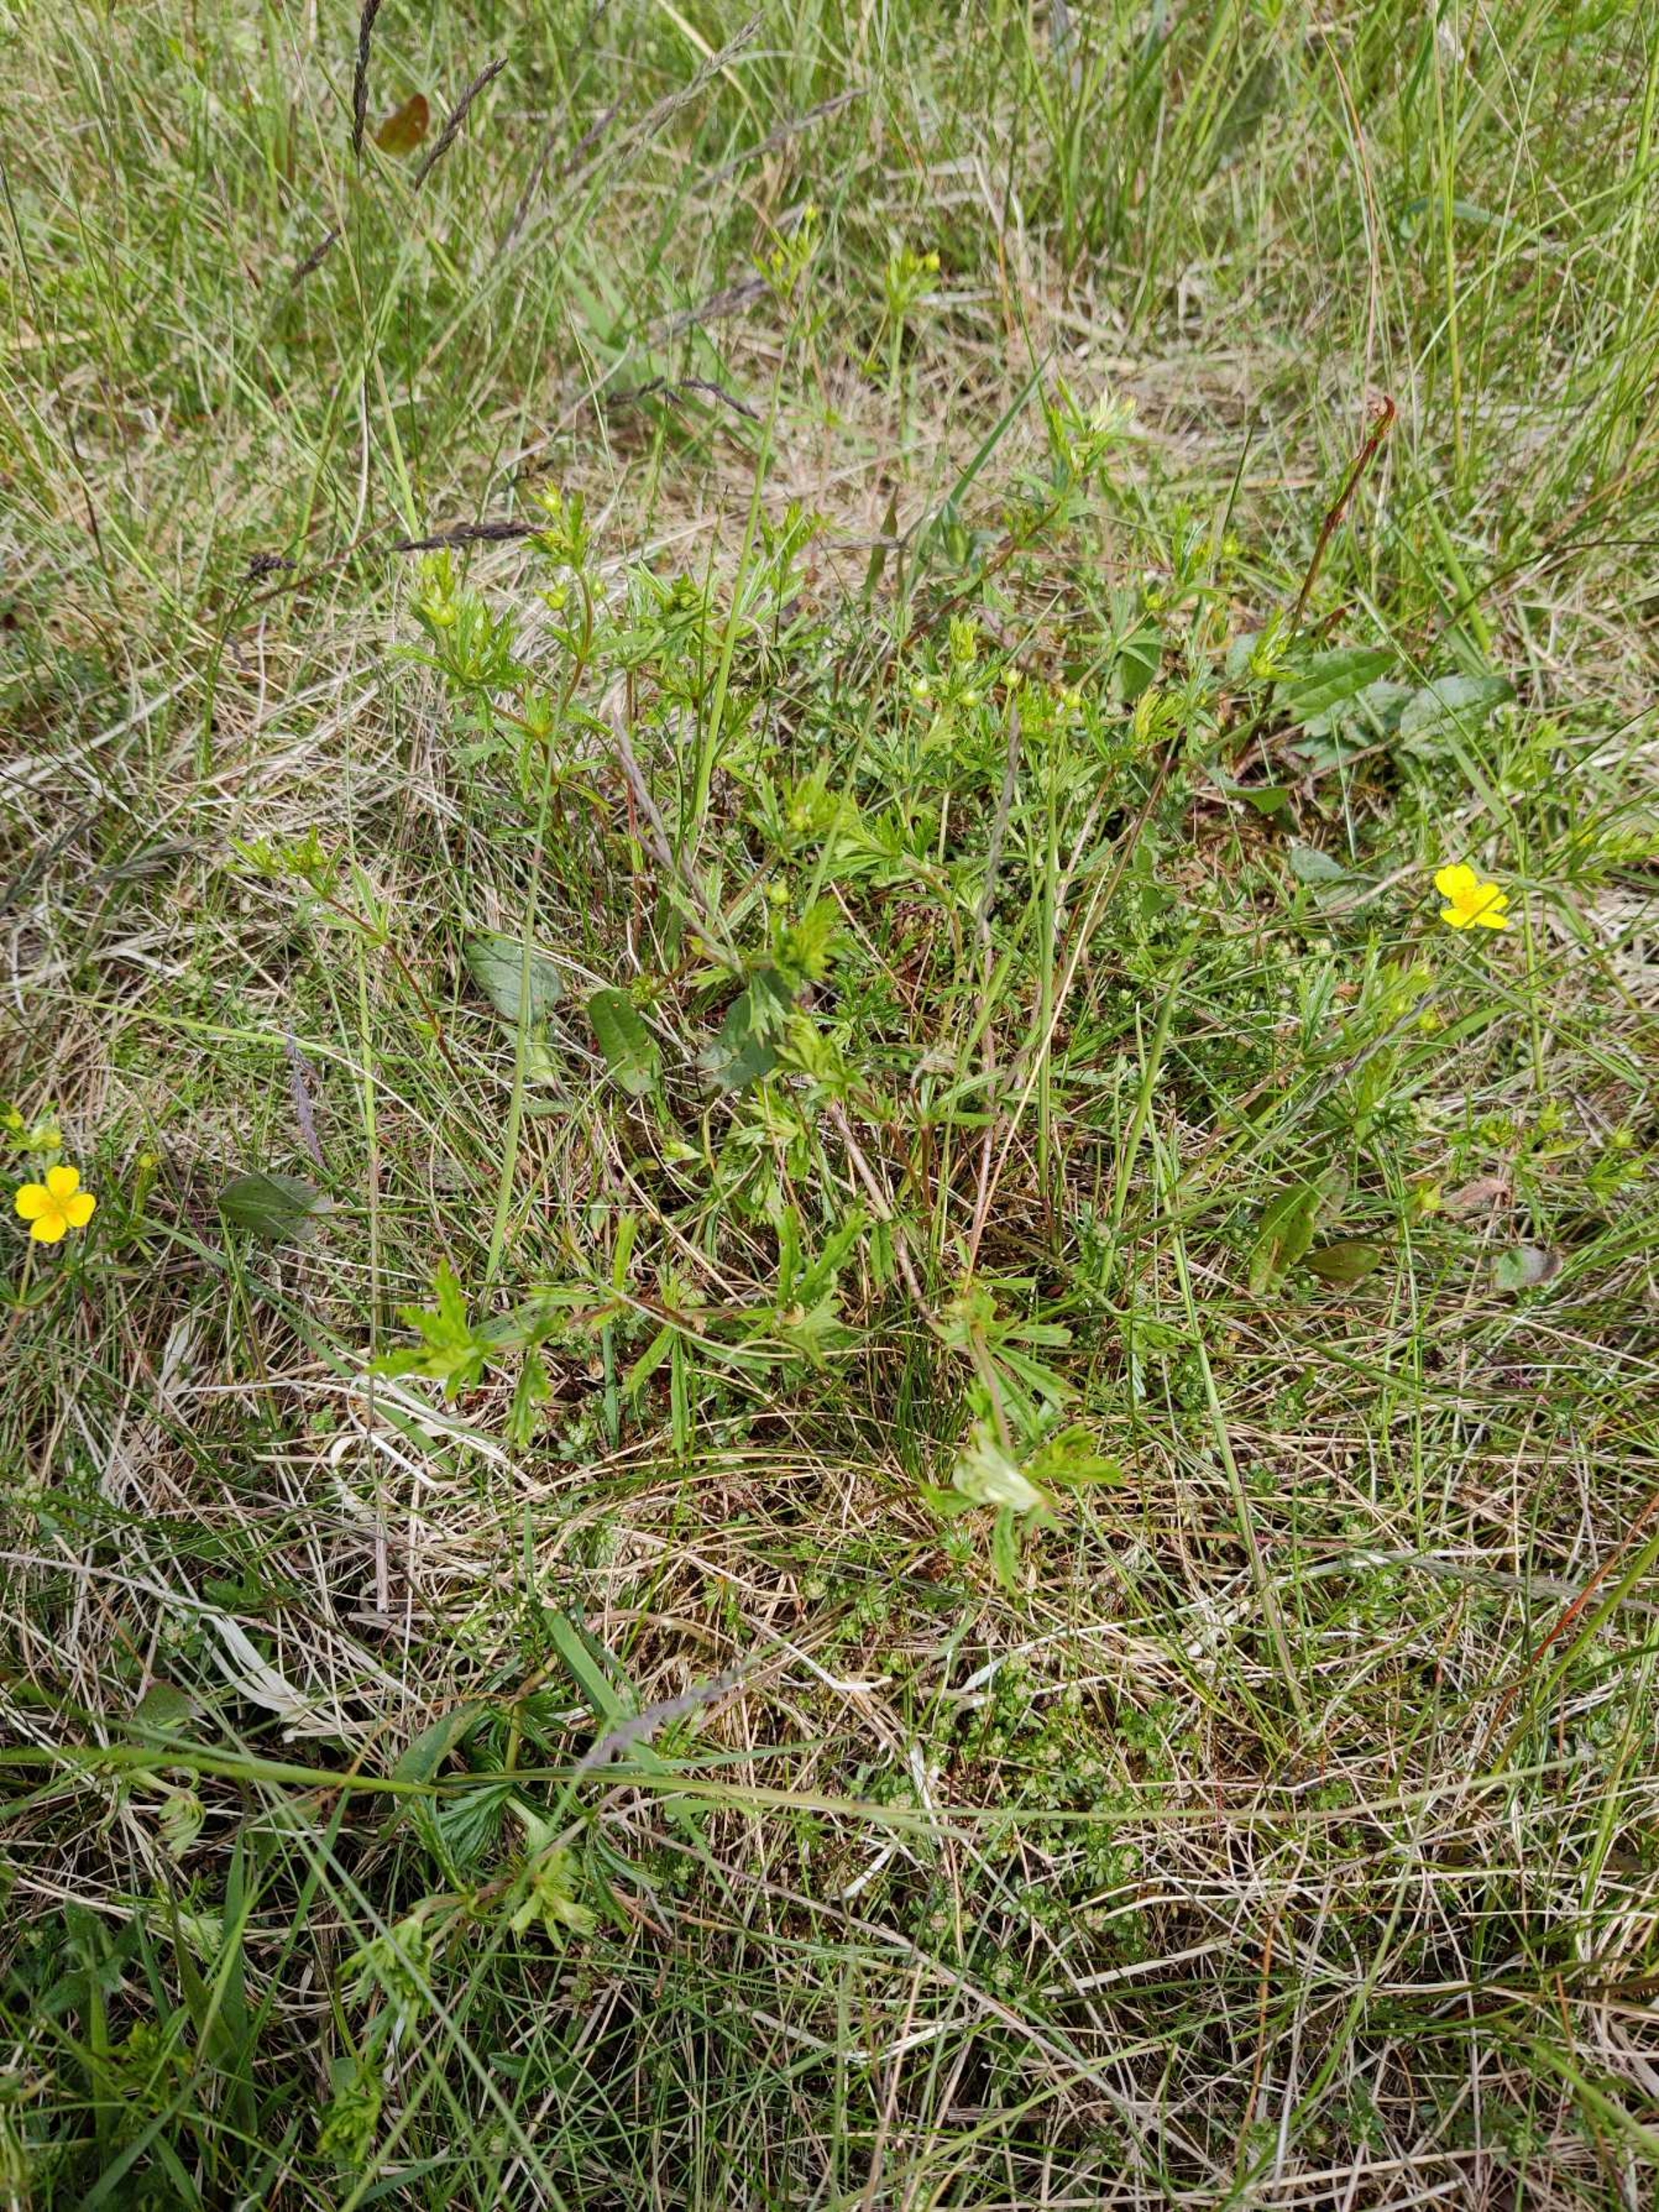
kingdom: Plantae
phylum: Tracheophyta
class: Magnoliopsida
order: Rosales
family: Rosaceae
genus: Potentilla
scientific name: Potentilla erecta
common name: Tormentil
